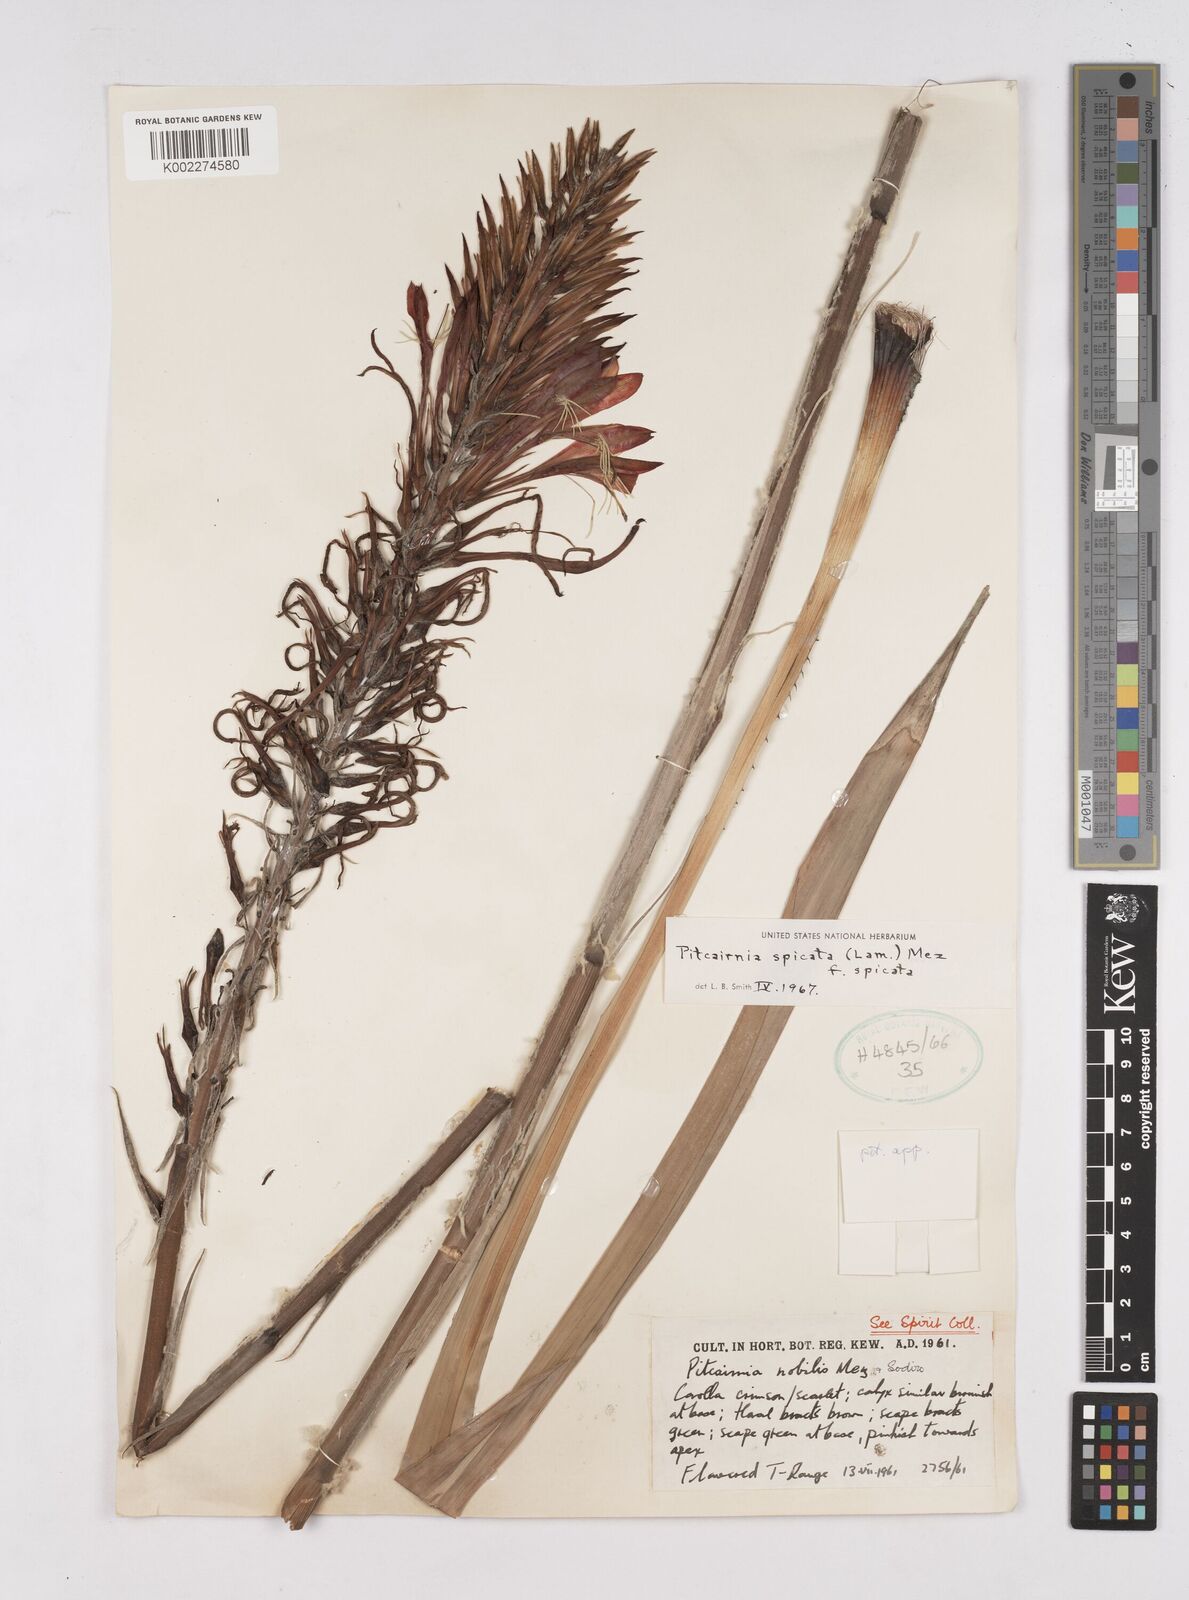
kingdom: Plantae
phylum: Tracheophyta
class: Liliopsida
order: Poales
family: Bromeliaceae
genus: Pitcairnia
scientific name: Pitcairnia spicata
